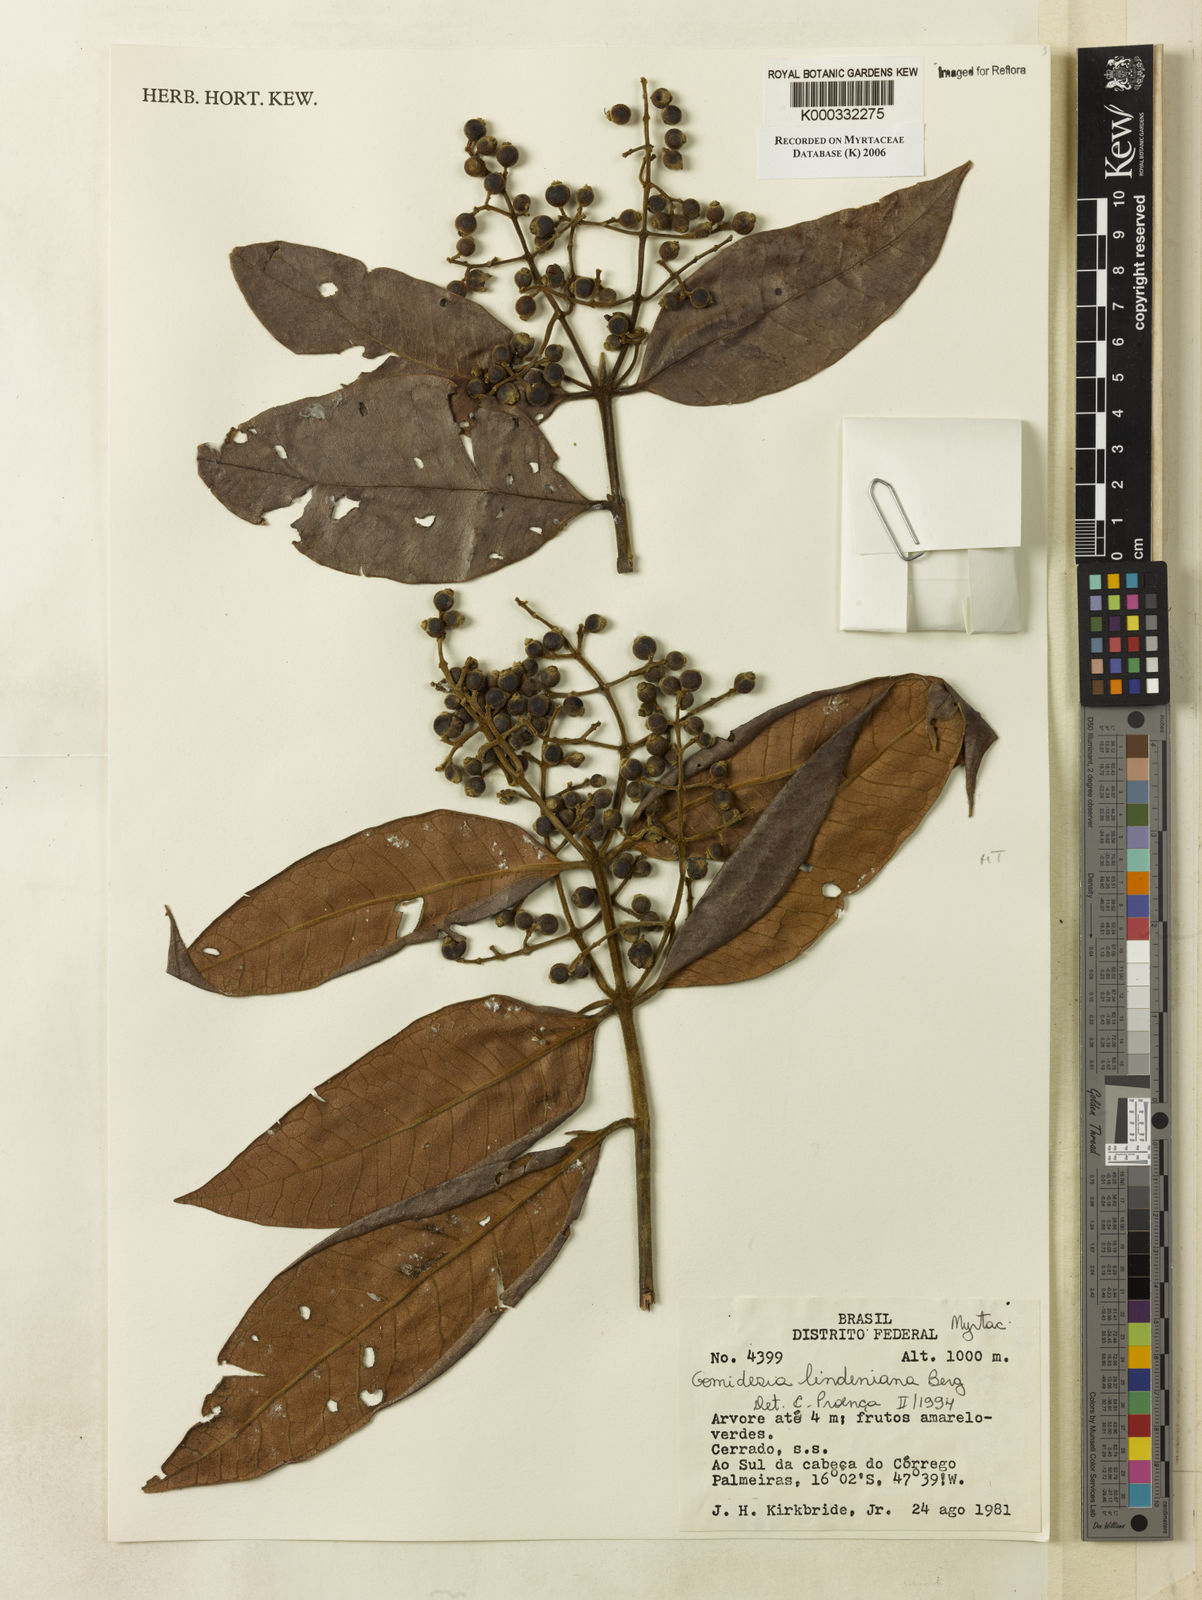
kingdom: Plantae
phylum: Tracheophyta
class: Magnoliopsida
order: Myrtales
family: Myrtaceae
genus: Myrcia
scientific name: Myrcia fenzliana
